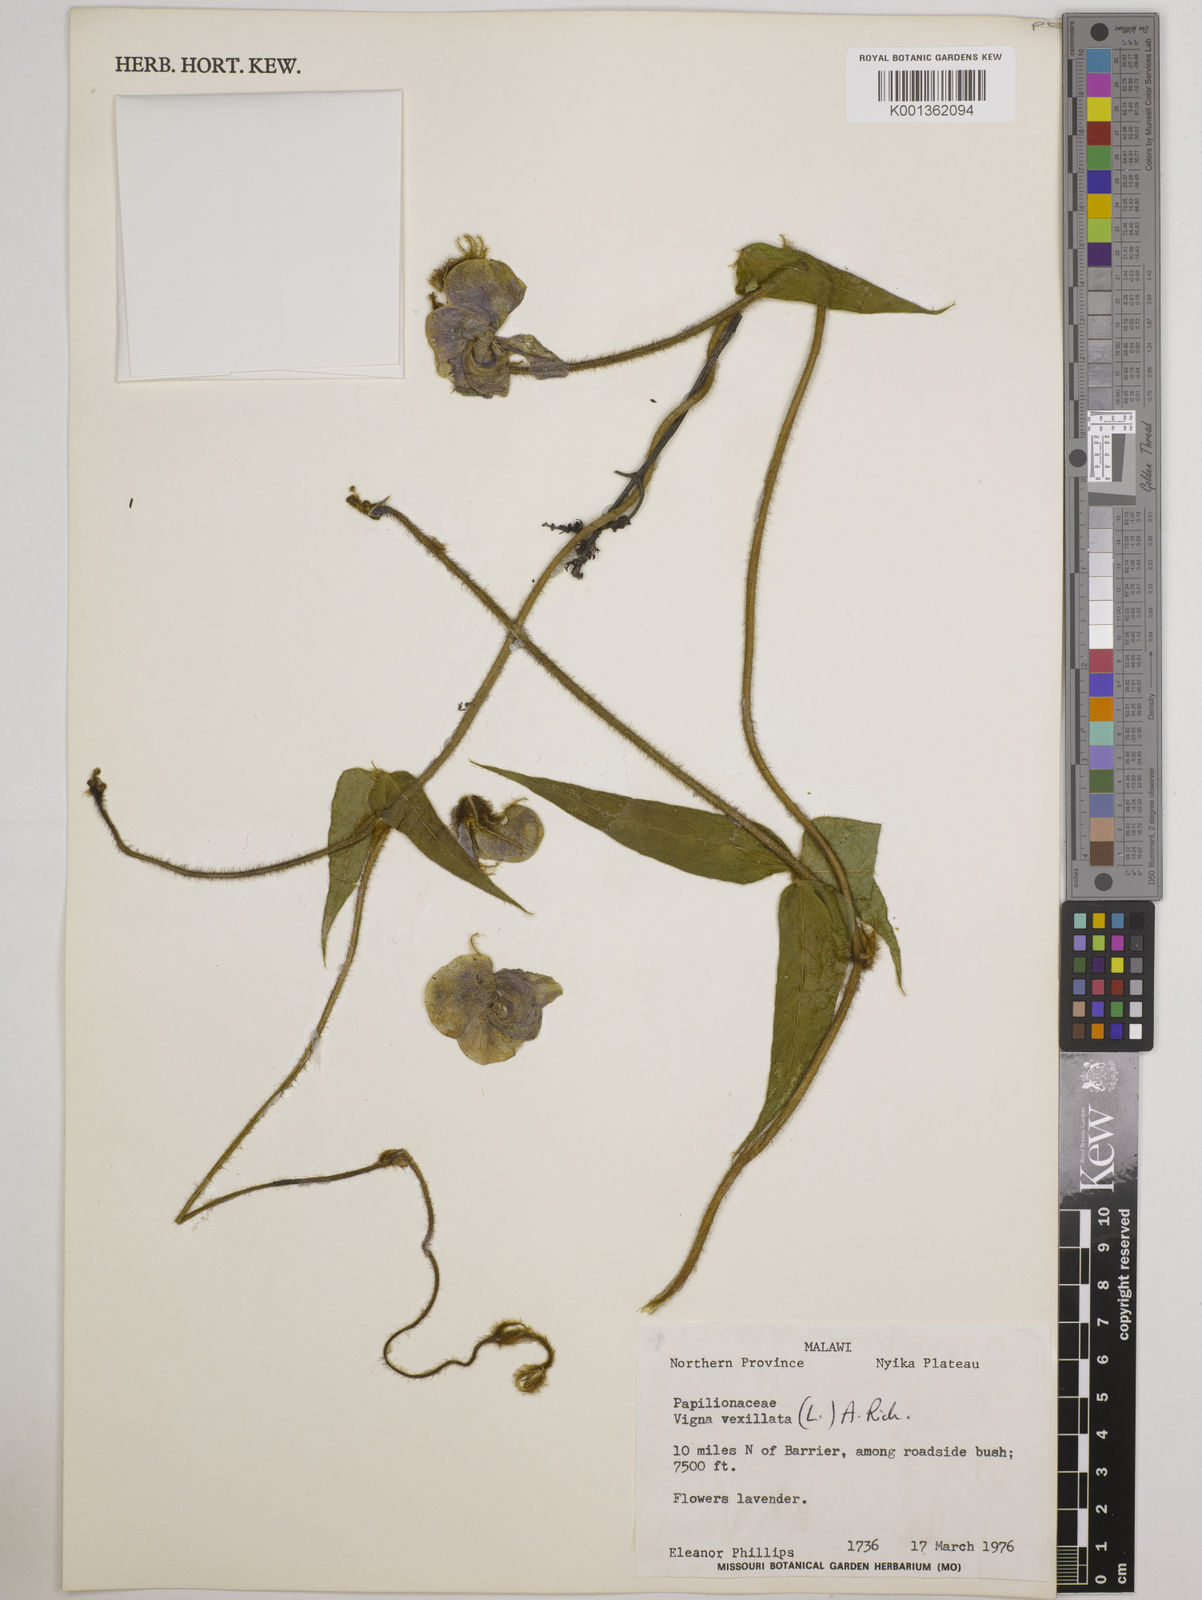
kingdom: Plantae
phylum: Tracheophyta
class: Magnoliopsida
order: Fabales
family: Fabaceae
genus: Vigna
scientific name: Vigna vexillata
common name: Zombi pea
